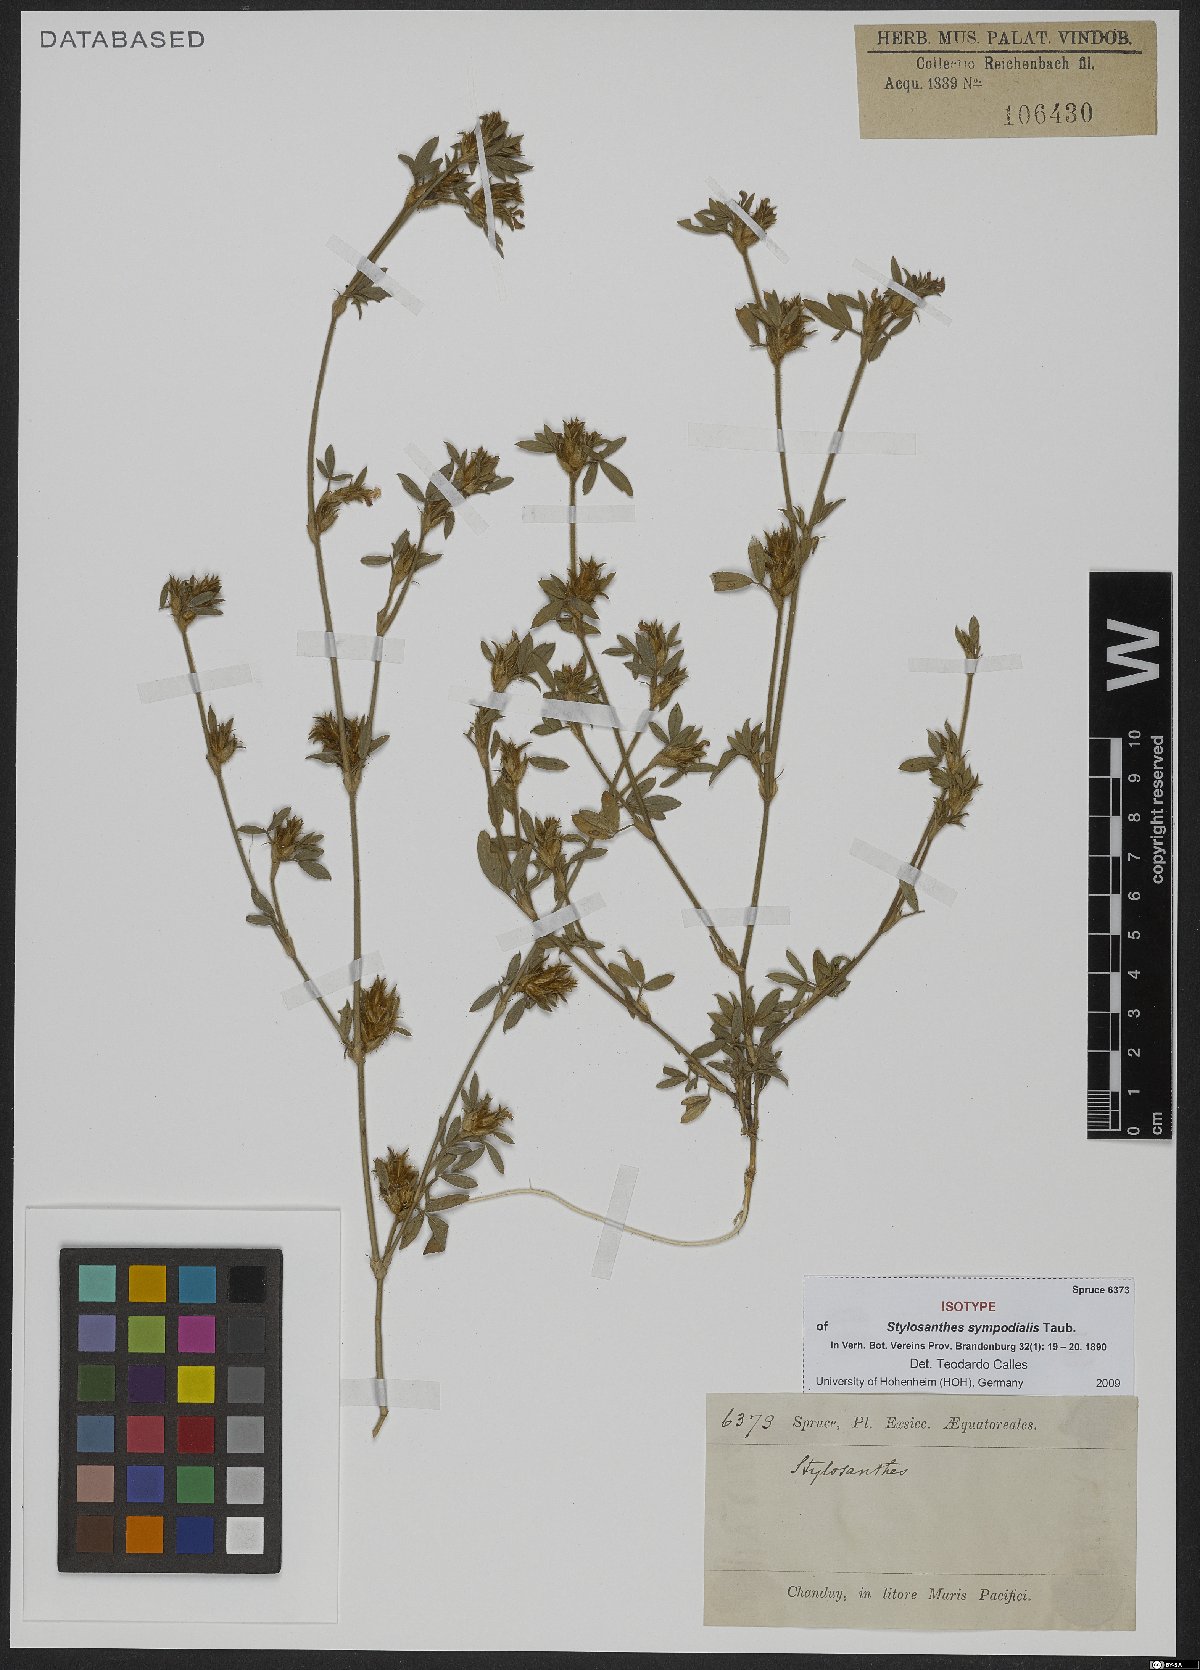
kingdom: Plantae
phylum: Tracheophyta
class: Magnoliopsida
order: Fabales
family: Fabaceae
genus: Stylosanthes
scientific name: Stylosanthes sympodialis
